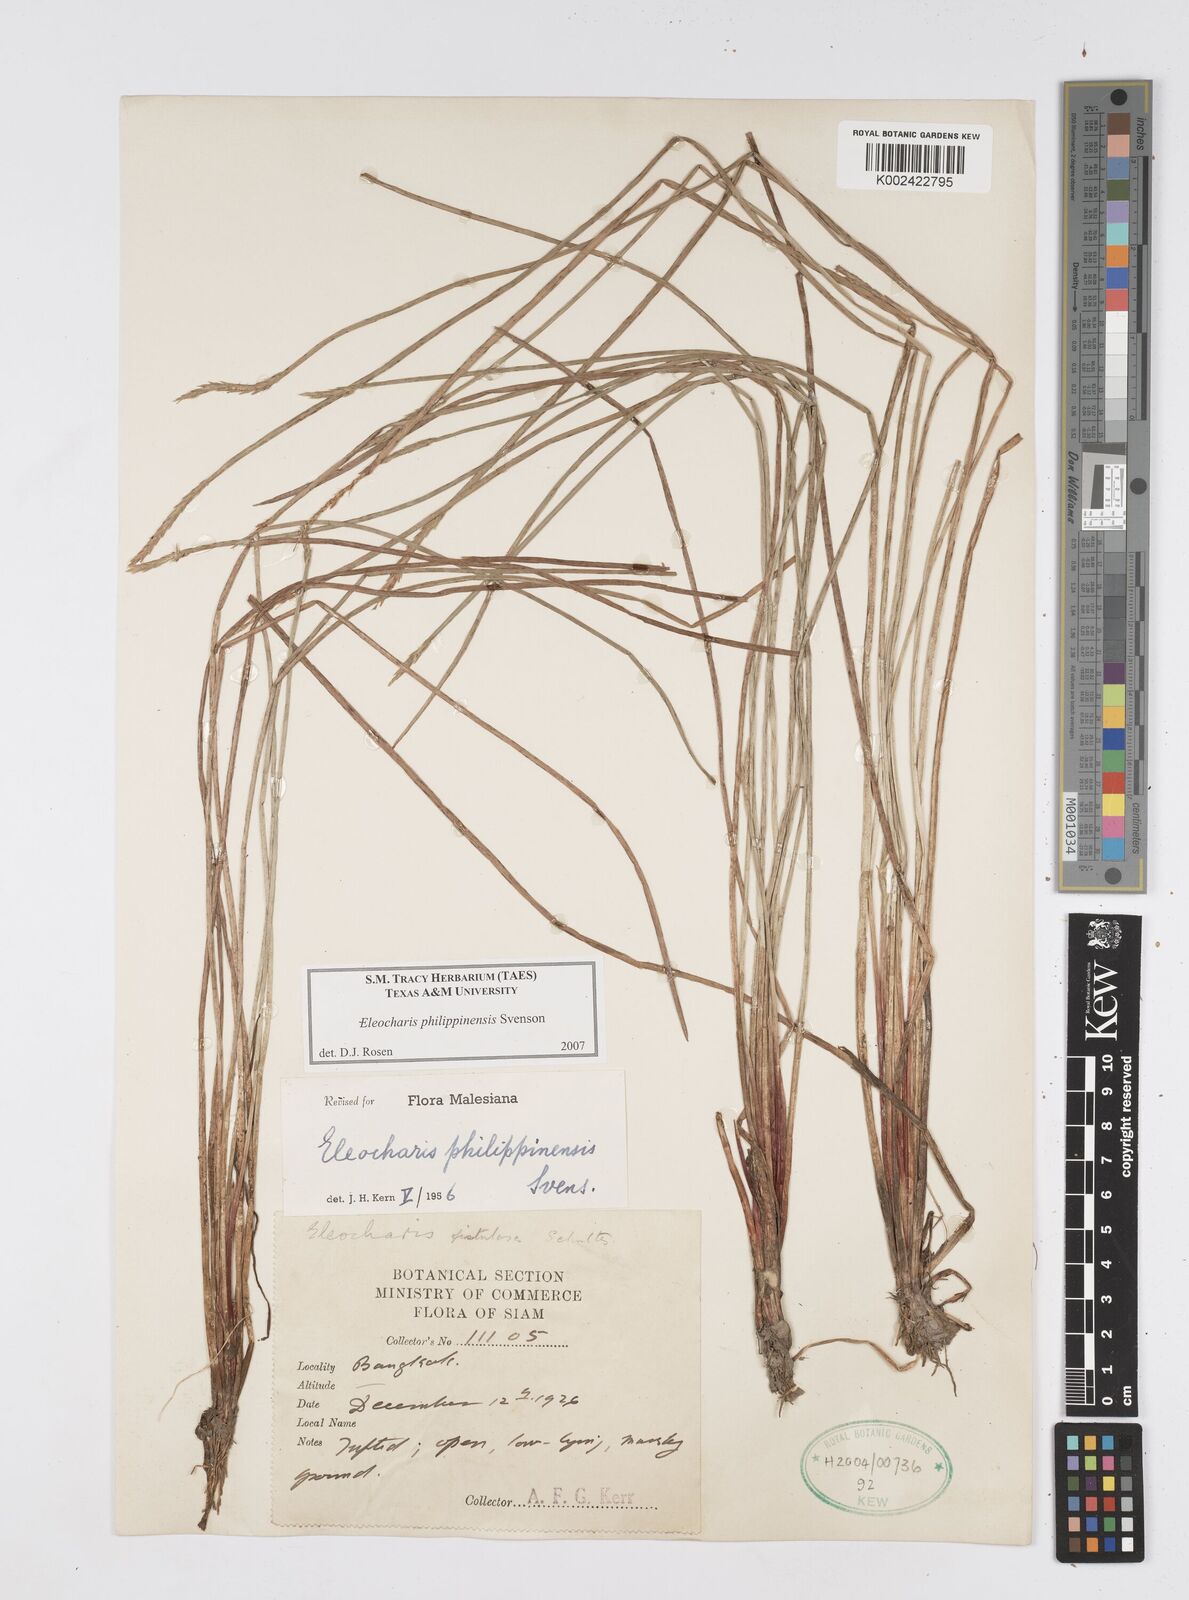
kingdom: Plantae
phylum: Tracheophyta
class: Liliopsida
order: Poales
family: Cyperaceae
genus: Eleocharis
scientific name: Eleocharis philippinensis
